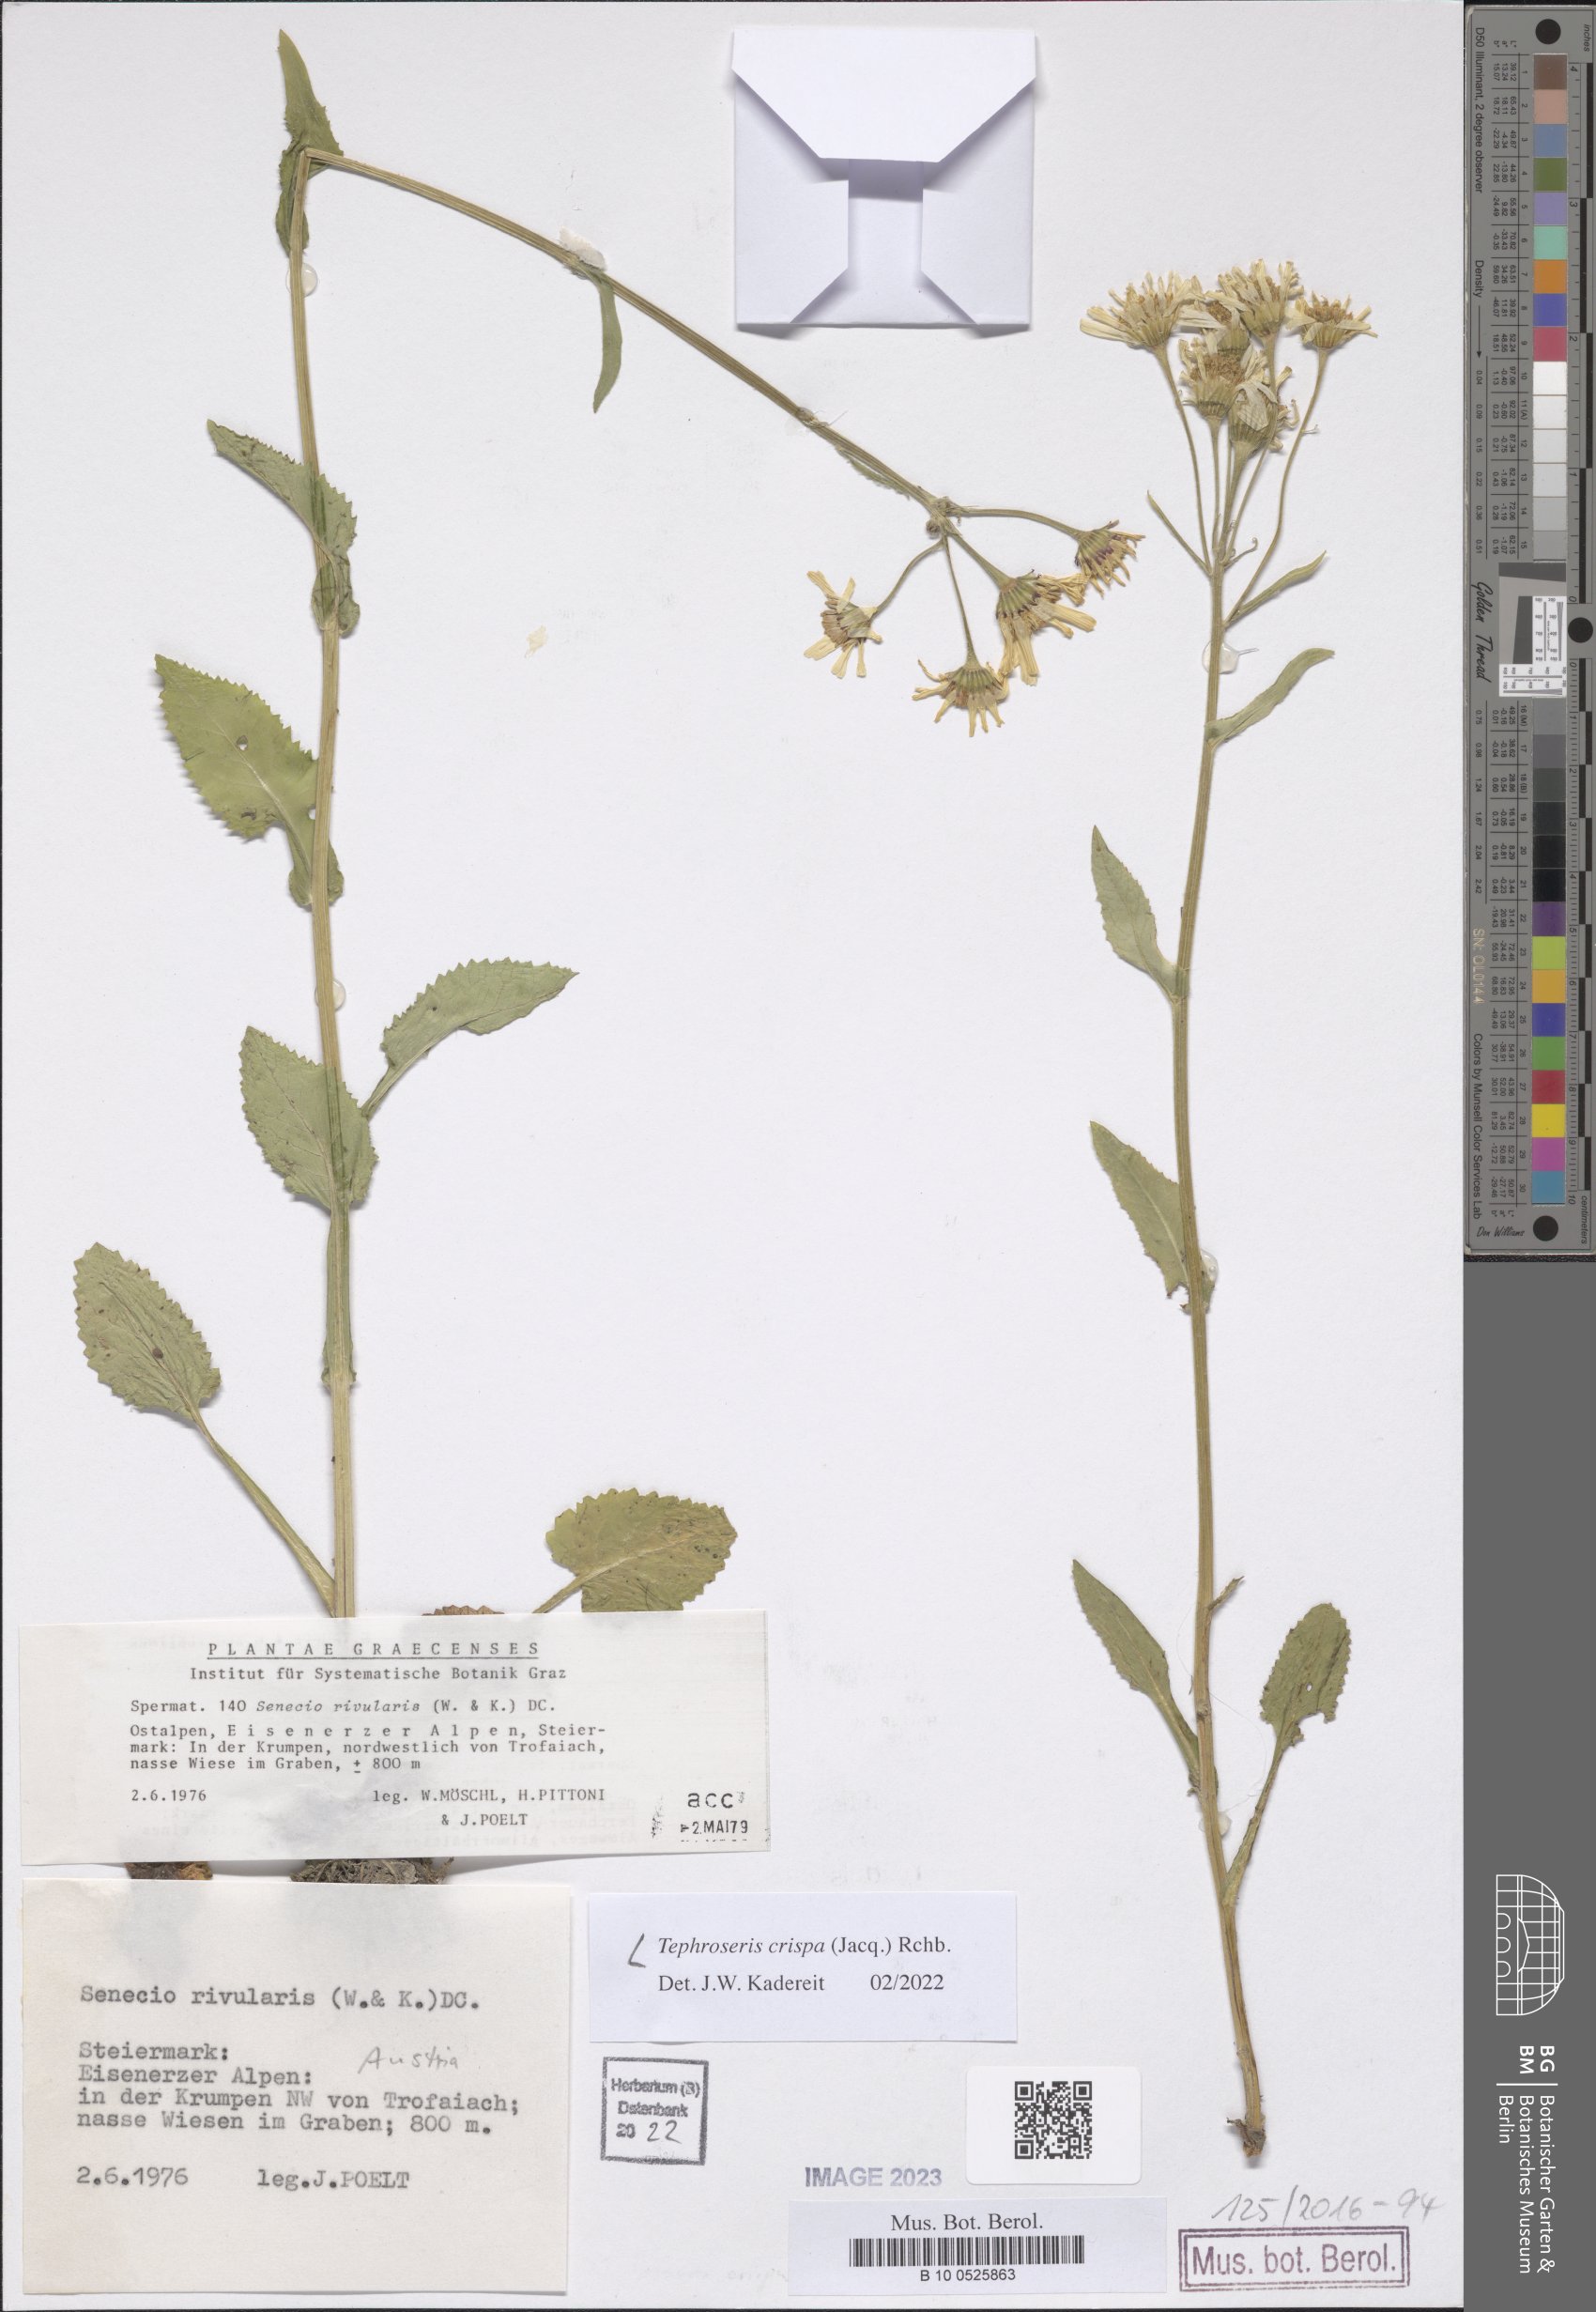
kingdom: Plantae
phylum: Tracheophyta
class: Magnoliopsida
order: Asterales
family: Asteraceae
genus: Tephroseris
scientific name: Tephroseris crispa
